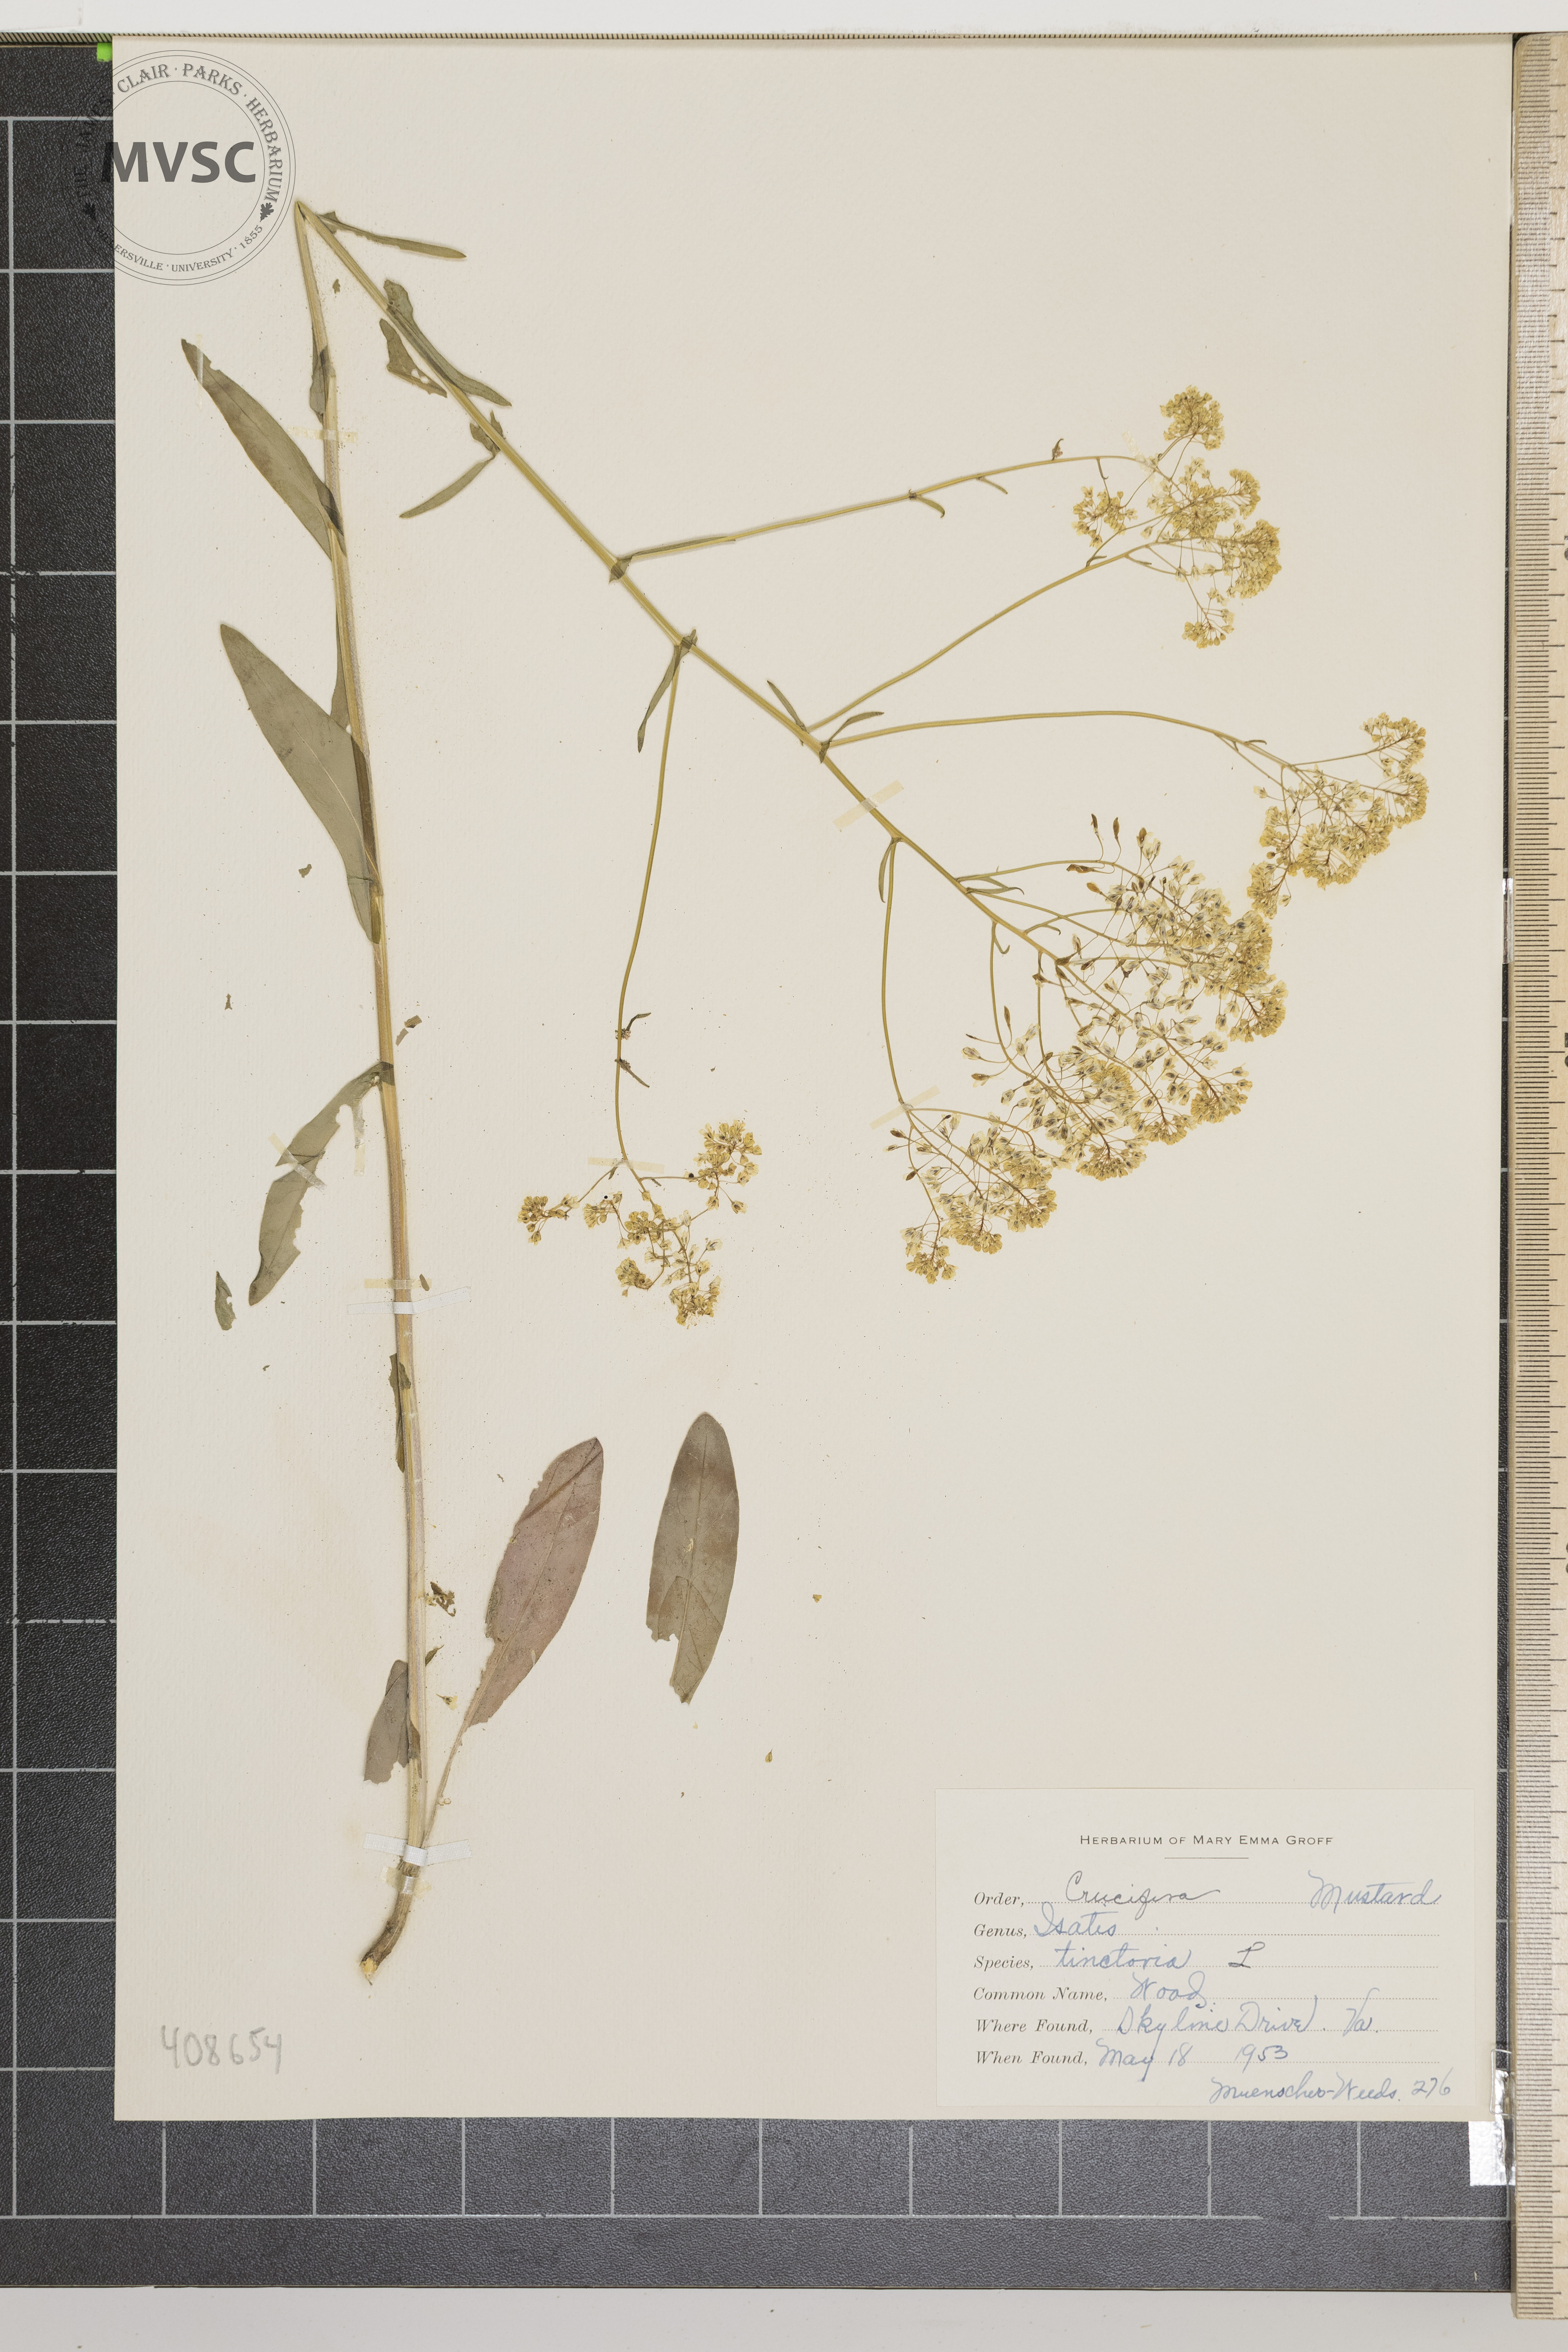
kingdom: Plantae
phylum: Tracheophyta
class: Magnoliopsida
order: Brassicales
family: Brassicaceae
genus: Isatis
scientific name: Isatis tinctoria
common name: Woad
